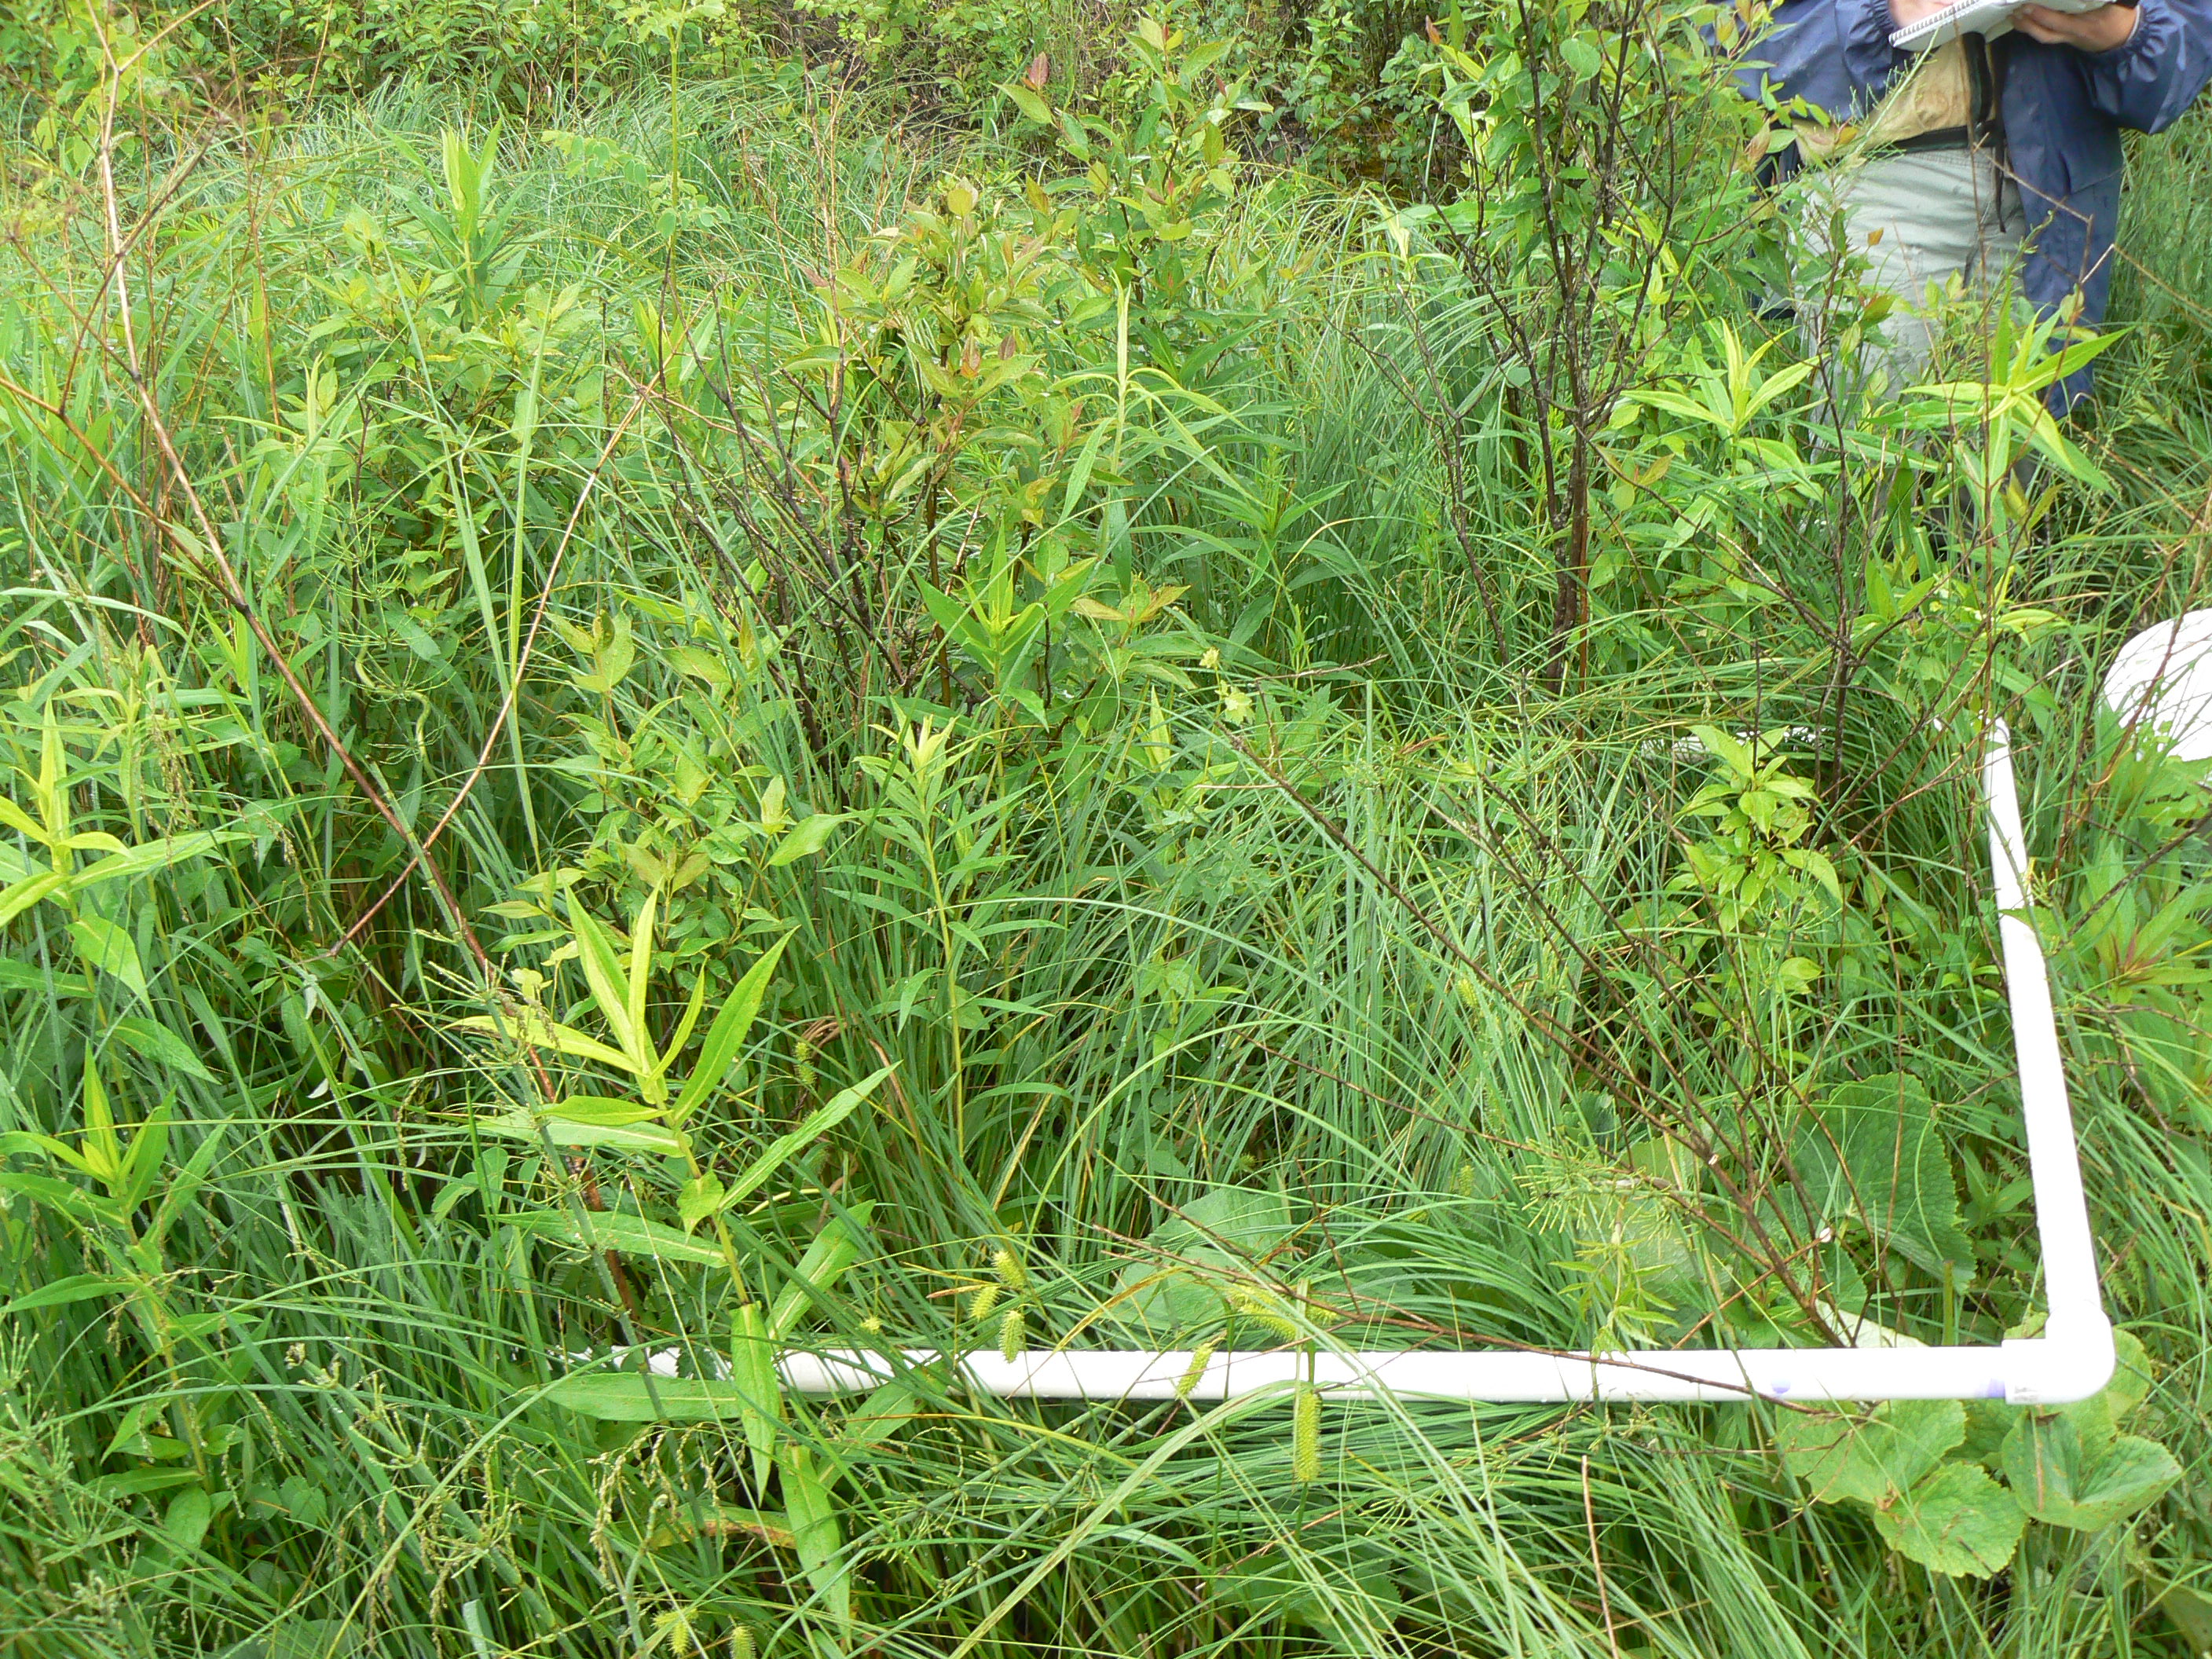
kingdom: Plantae
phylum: Tracheophyta
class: Magnoliopsida
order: Lamiales
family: Lamiaceae
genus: Pycnanthemum
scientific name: Pycnanthemum virginianum
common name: Virginia mountain-mint
